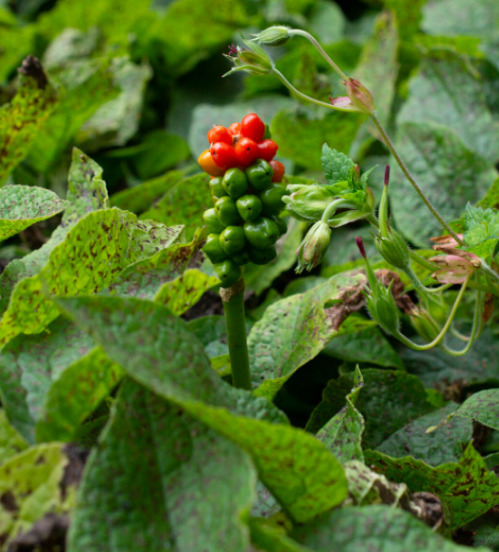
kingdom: Plantae
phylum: Tracheophyta
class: Liliopsida
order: Alismatales
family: Araceae
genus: Arum
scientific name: Arum
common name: Arumslægten
